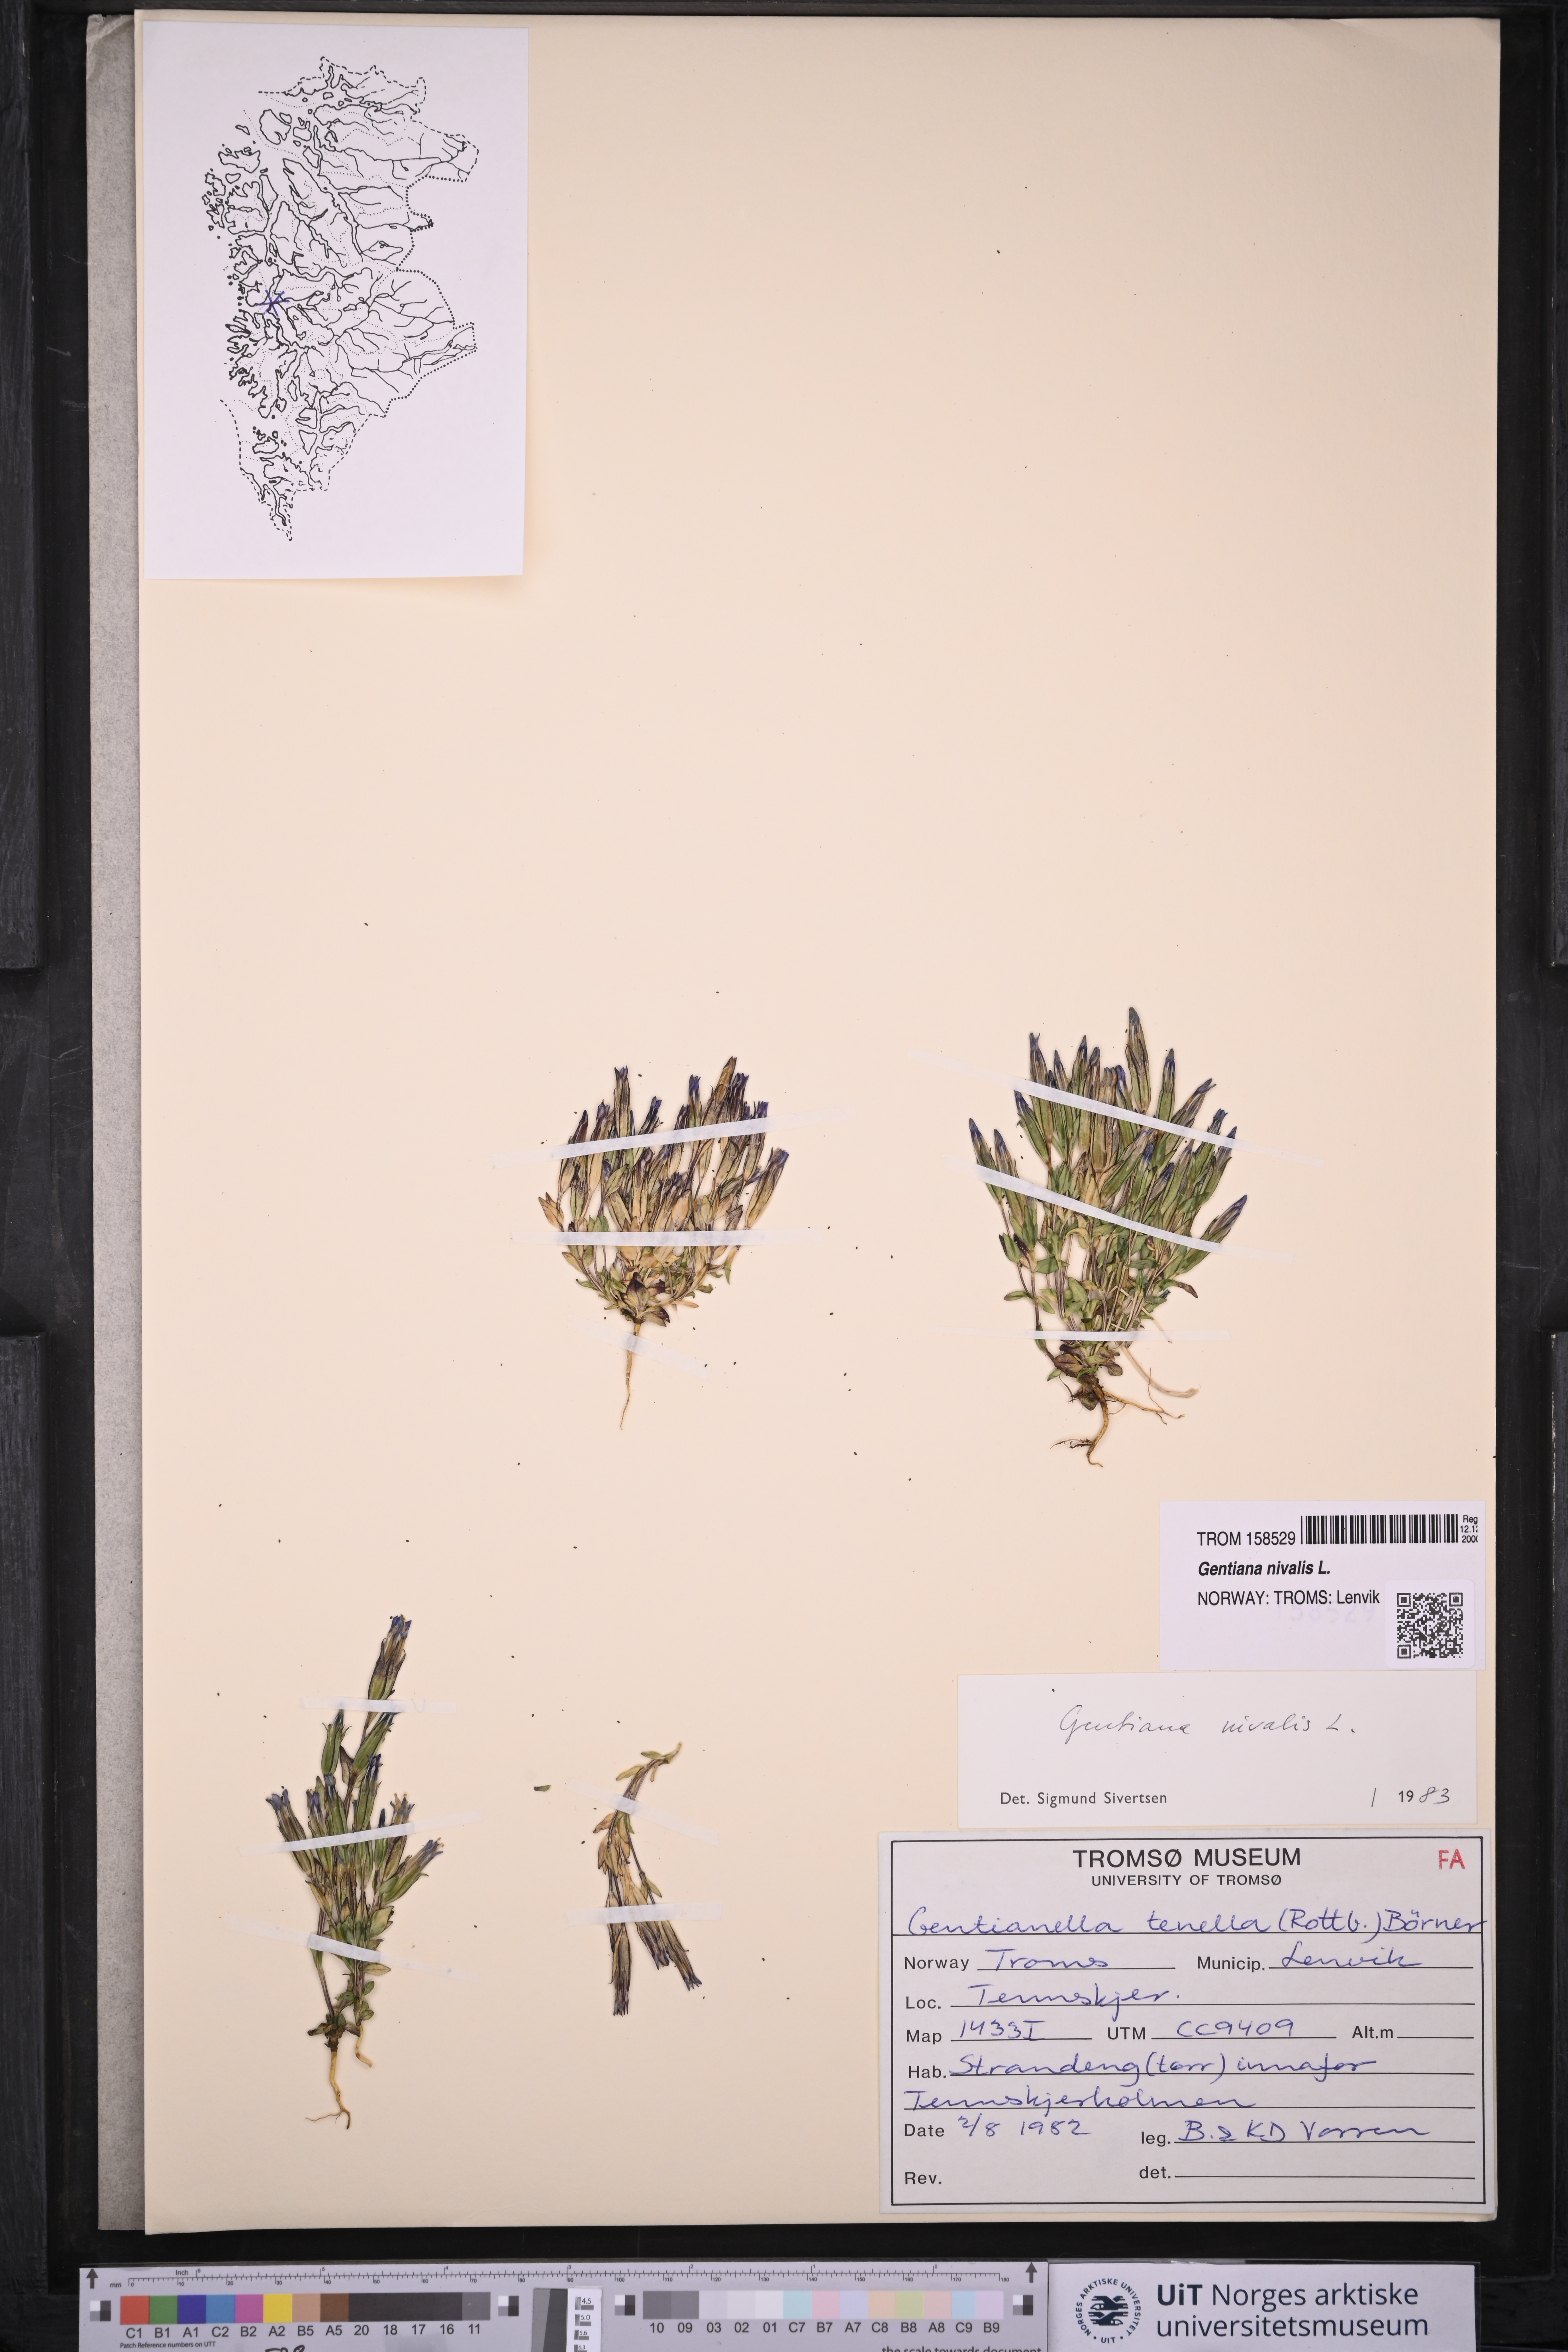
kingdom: Plantae
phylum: Tracheophyta
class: Magnoliopsida
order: Gentianales
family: Gentianaceae
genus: Gentiana
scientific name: Gentiana nivalis
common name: Alpine gentian
